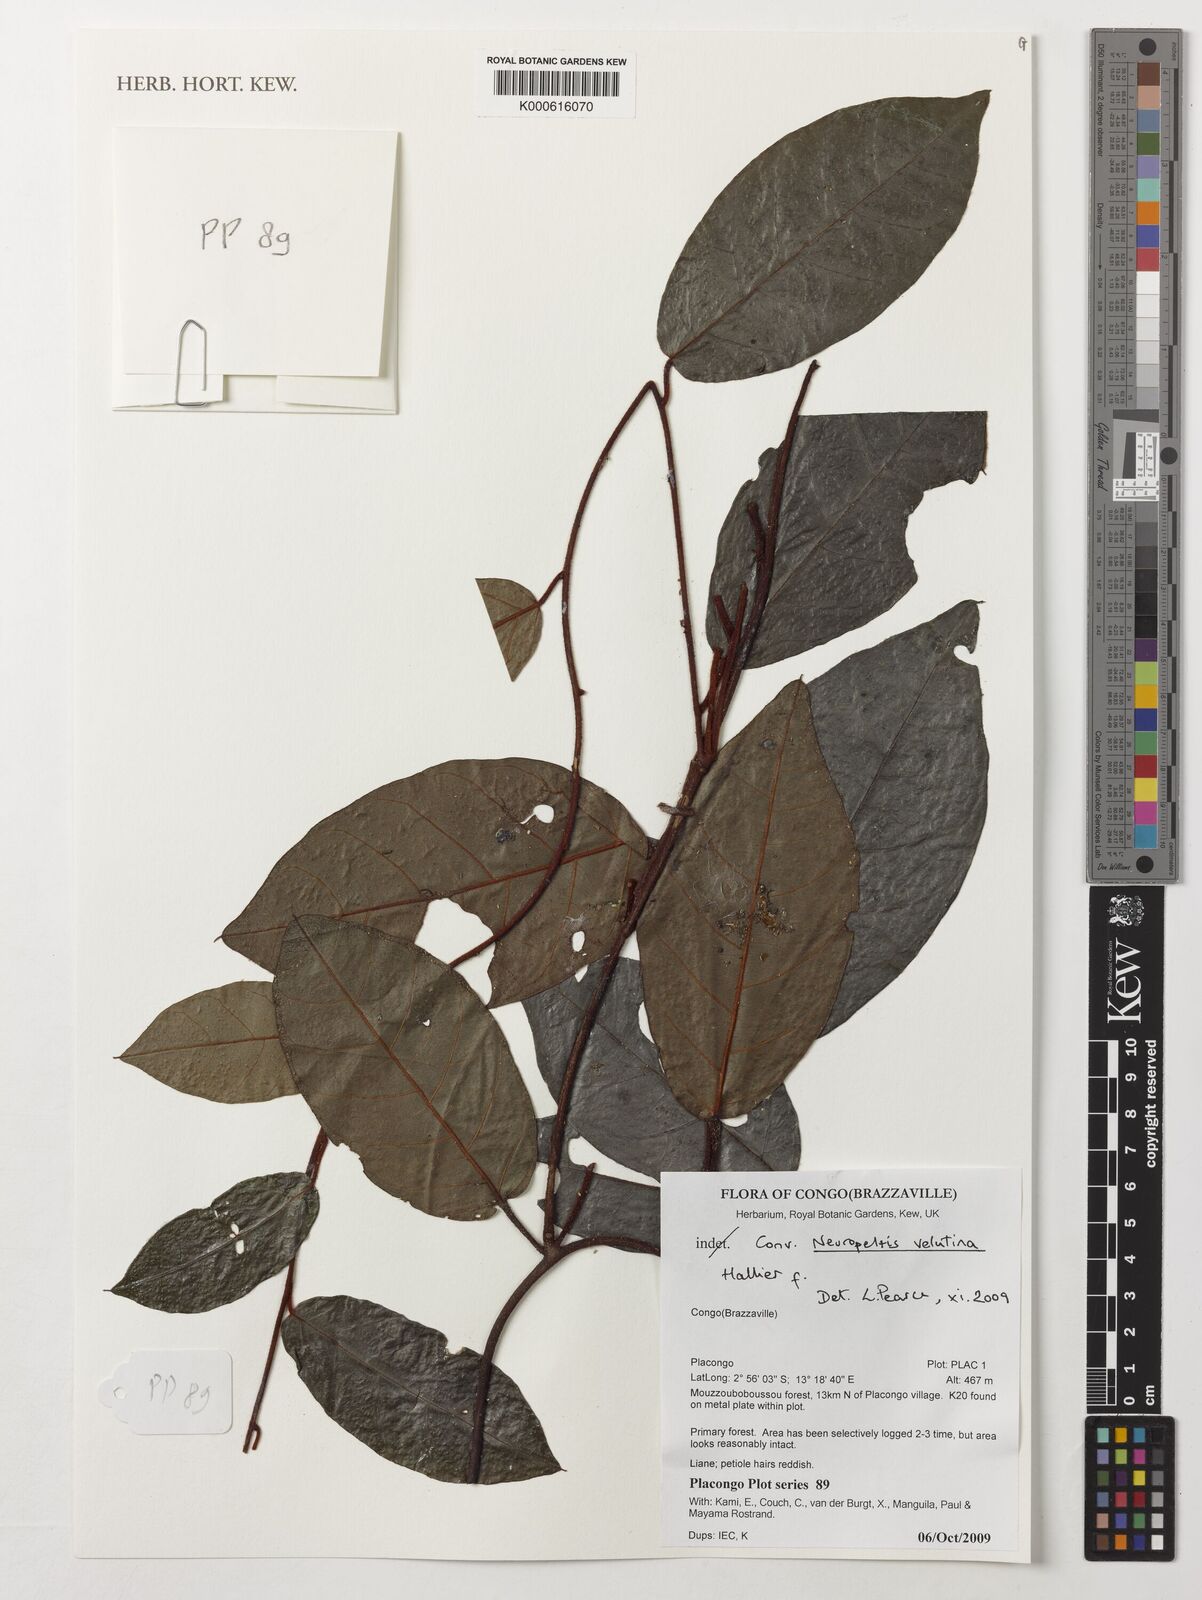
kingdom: Plantae
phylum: Tracheophyta
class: Magnoliopsida
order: Solanales
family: Convolvulaceae
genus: Neuropeltis
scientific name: Neuropeltis velutina
